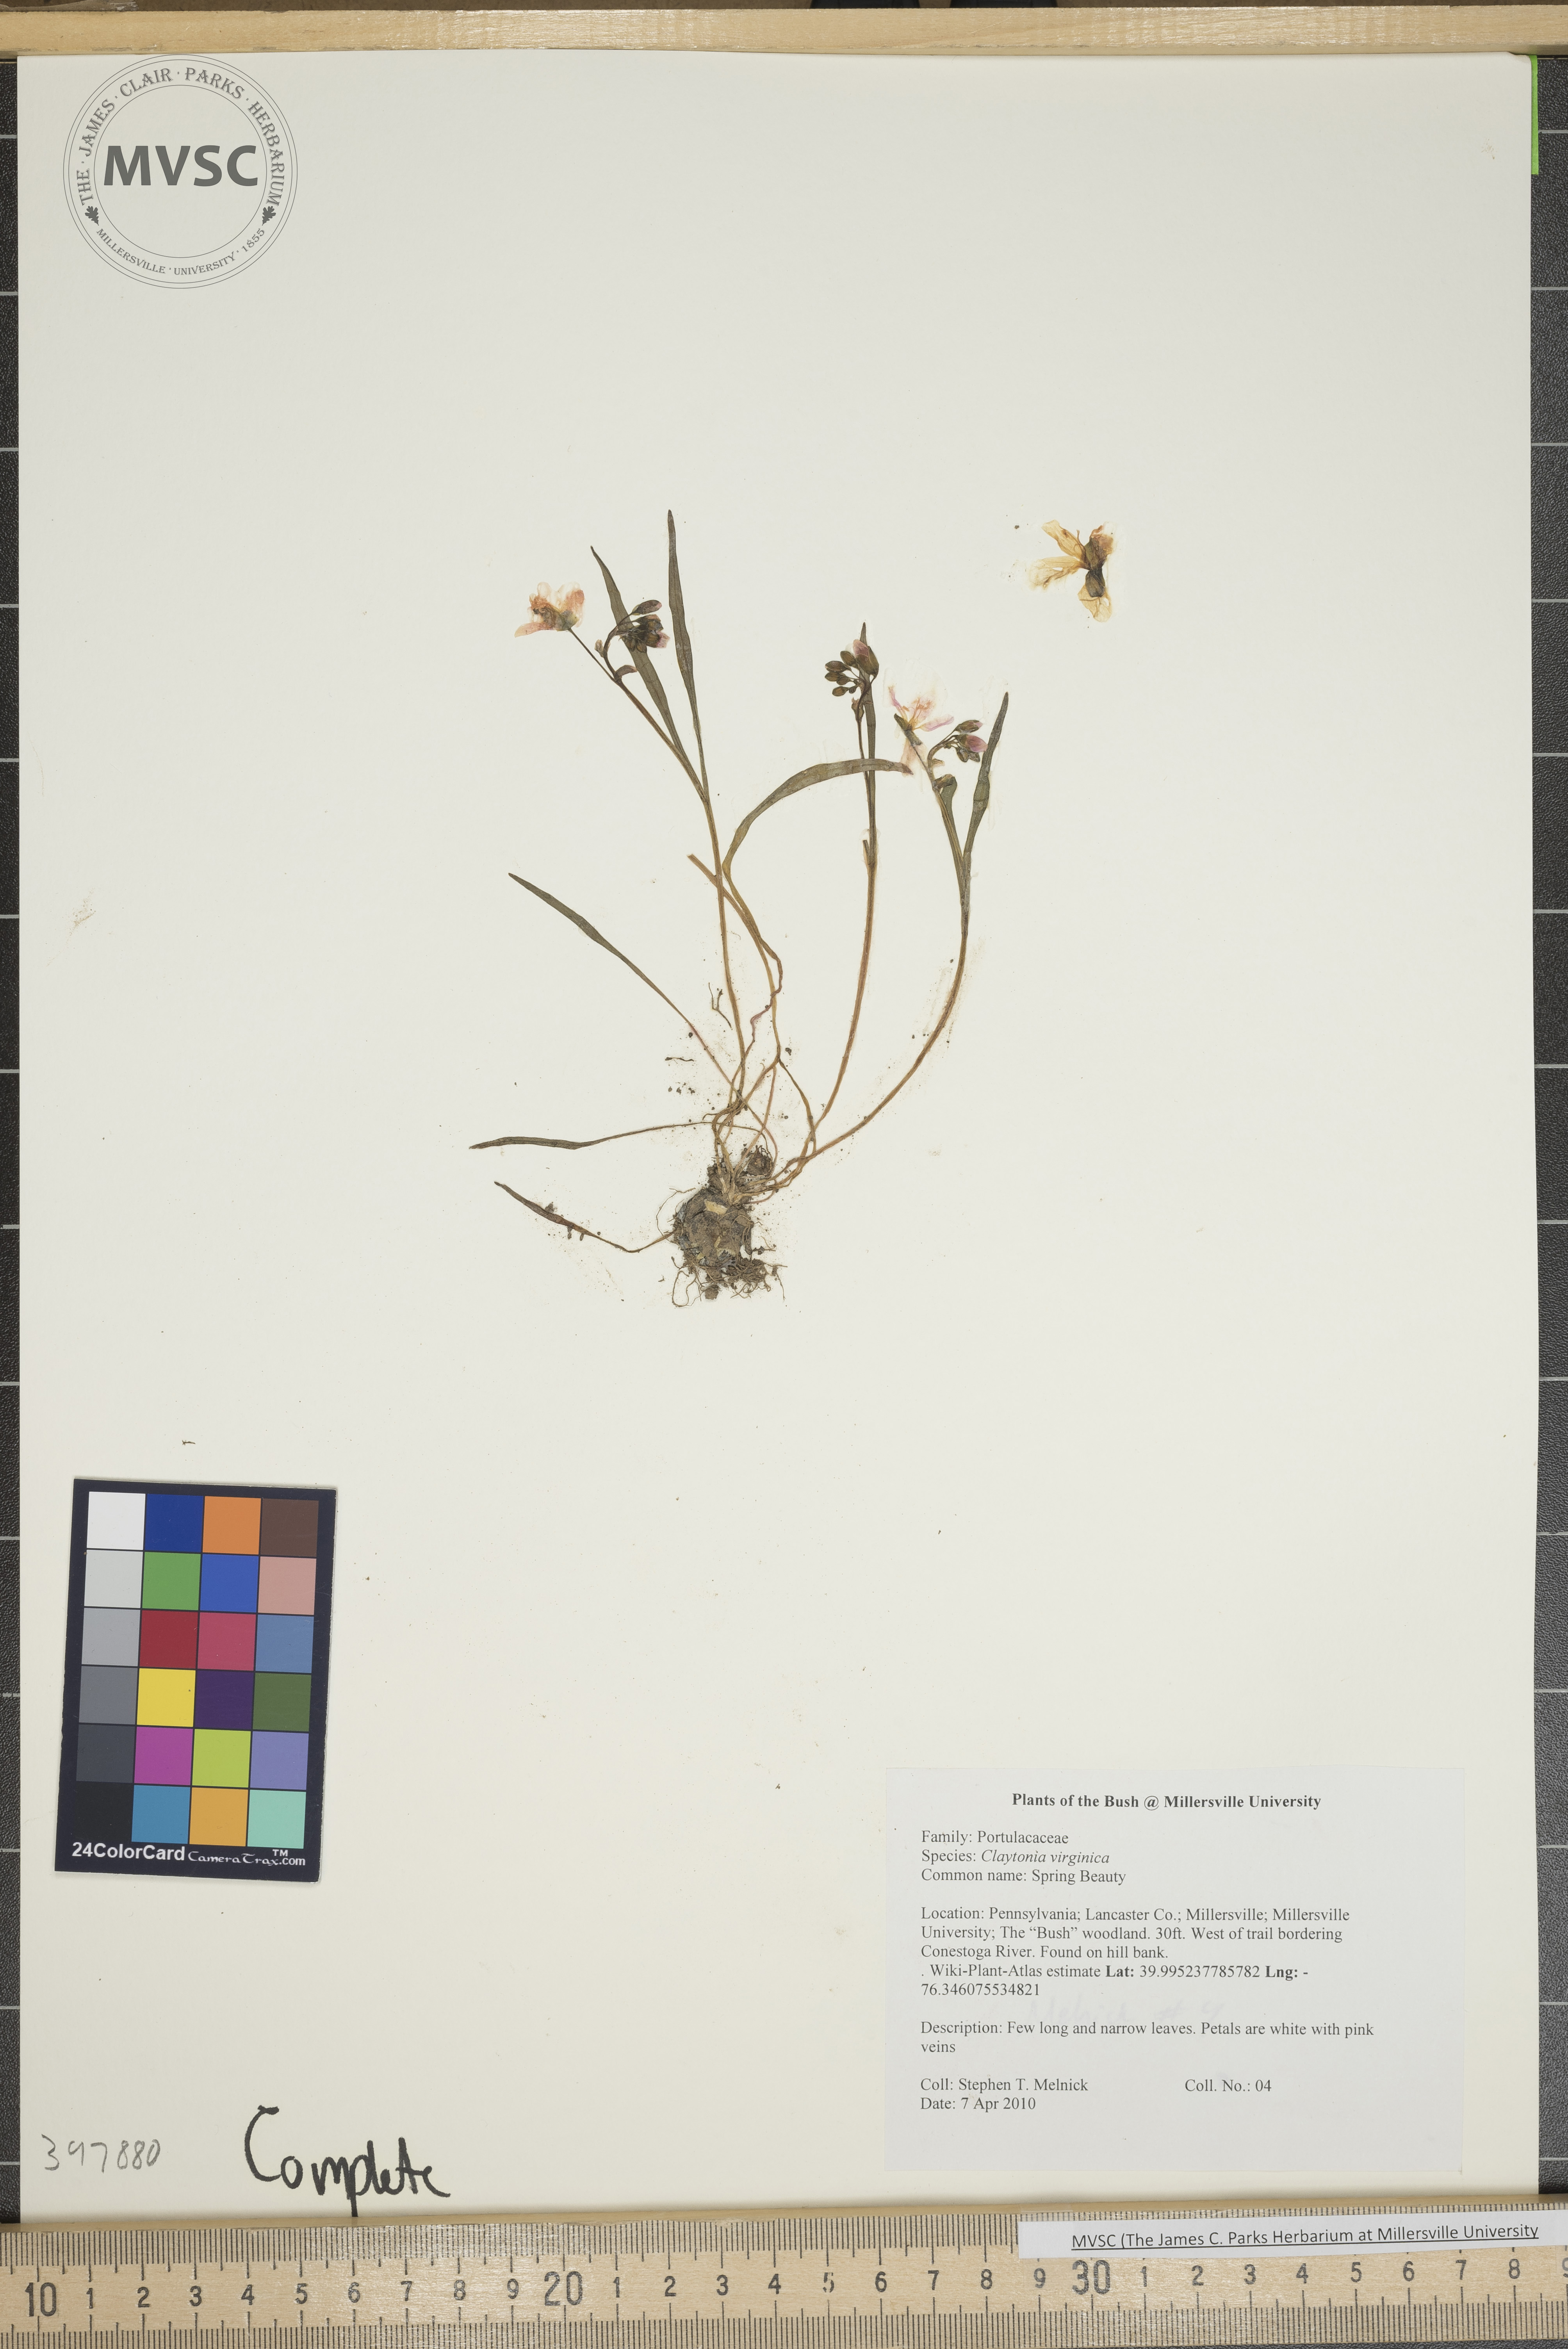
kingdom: Plantae
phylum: Tracheophyta
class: Magnoliopsida
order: Caryophyllales
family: Montiaceae
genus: Claytonia
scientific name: Claytonia virginica
